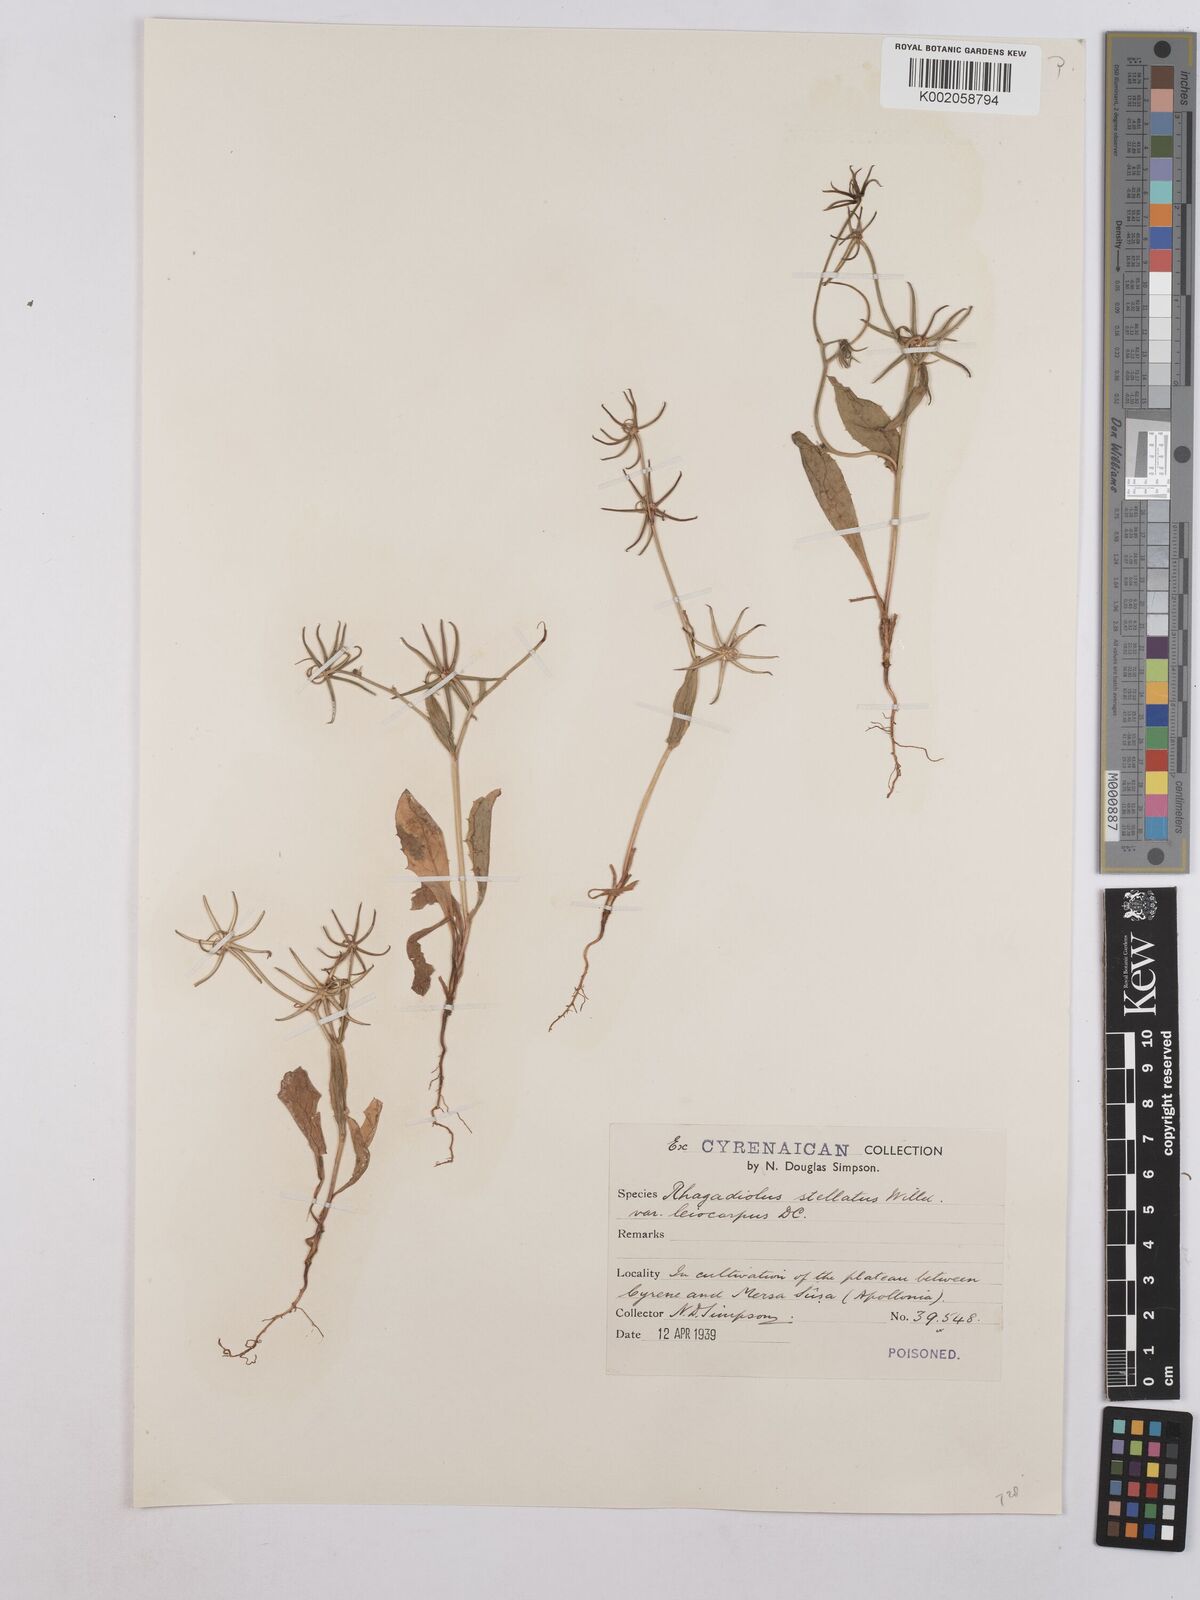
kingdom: Plantae
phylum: Tracheophyta
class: Magnoliopsida
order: Asterales
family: Asteraceae
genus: Rhagadiolus
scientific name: Rhagadiolus stellatus
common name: Star hawkbit
